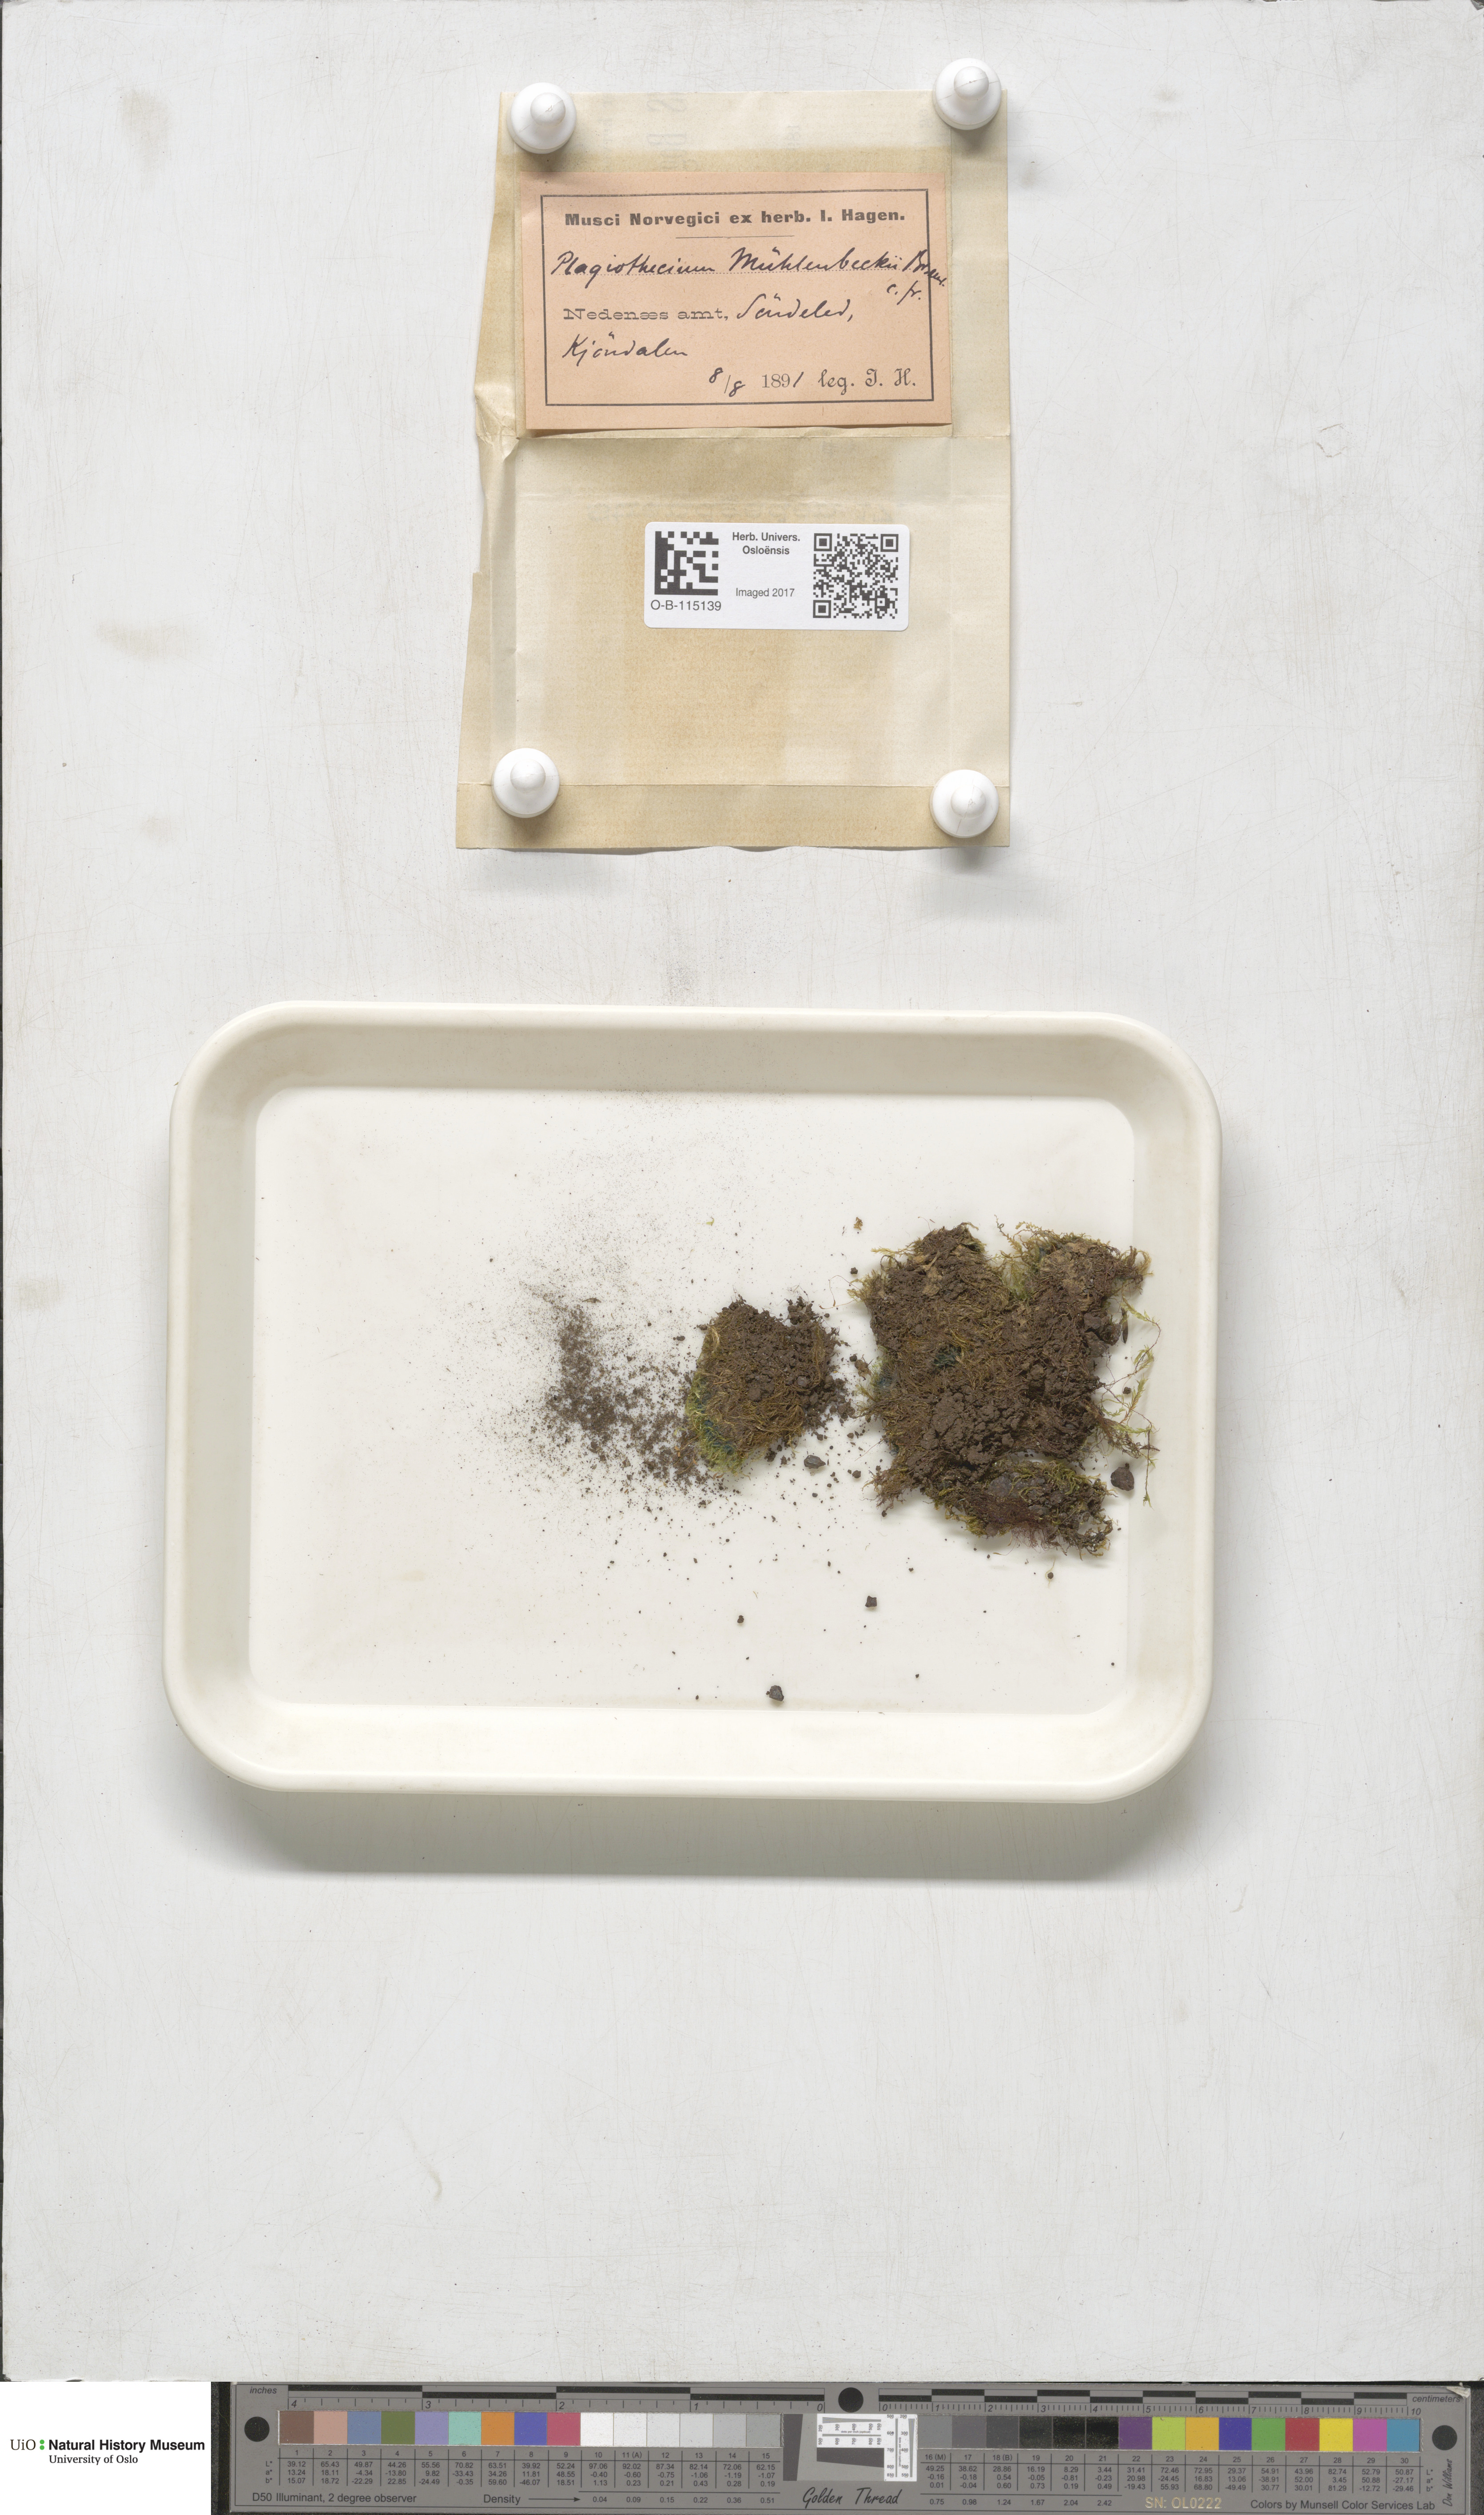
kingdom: Plantae
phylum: Bryophyta
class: Bryopsida
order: Hypnales
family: Plagiotheciaceae
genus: Herzogiella
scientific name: Herzogiella striatella
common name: Muhlenbeck's feather-moss
